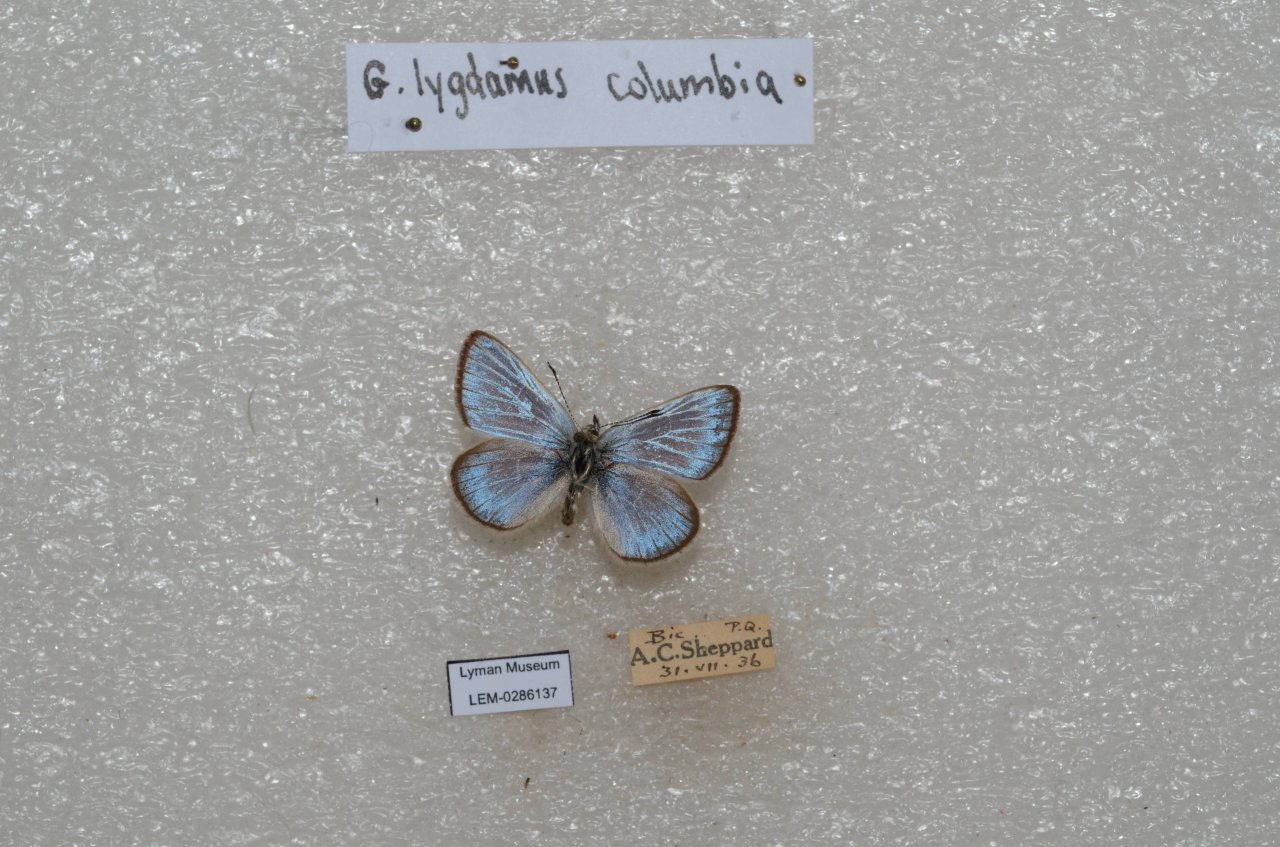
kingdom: Animalia
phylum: Arthropoda
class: Insecta
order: Lepidoptera
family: Lycaenidae
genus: Glaucopsyche
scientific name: Glaucopsyche lygdamus
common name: Silvery Blue
